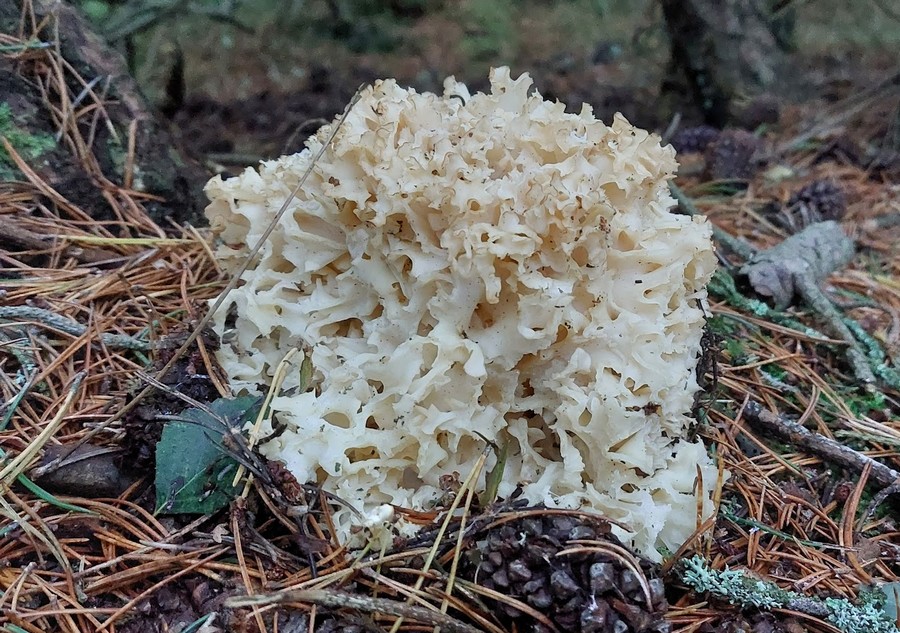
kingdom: Fungi
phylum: Basidiomycota
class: Agaricomycetes
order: Polyporales
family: Sparassidaceae
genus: Sparassis
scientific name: Sparassis crispa
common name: kruset blomkålssvamp
